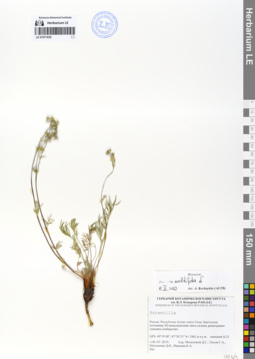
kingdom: Plantae
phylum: Tracheophyta
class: Magnoliopsida
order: Rosales
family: Rosaceae
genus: Potentilla
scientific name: Potentilla multifida
